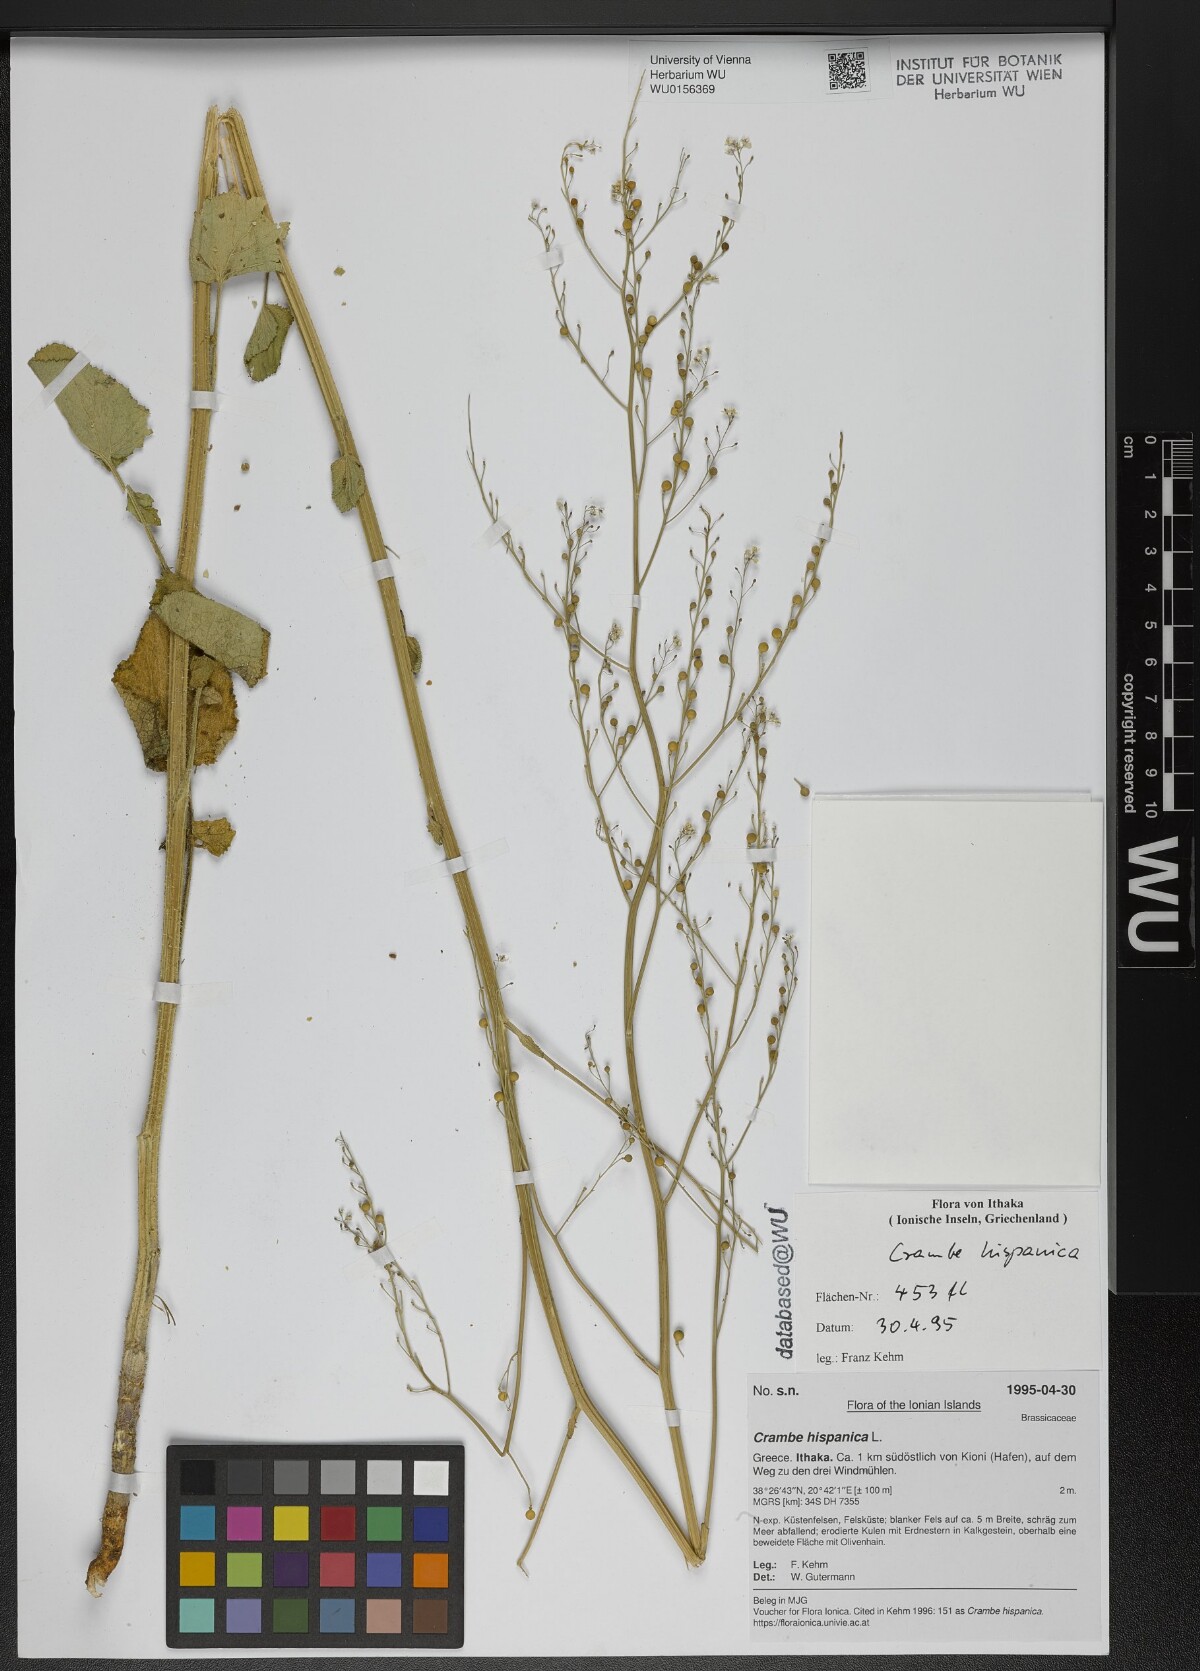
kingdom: Plantae
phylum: Tracheophyta
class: Magnoliopsida
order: Brassicales
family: Brassicaceae
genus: Crambe
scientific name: Crambe hispanica
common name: Abyssinian mustard
